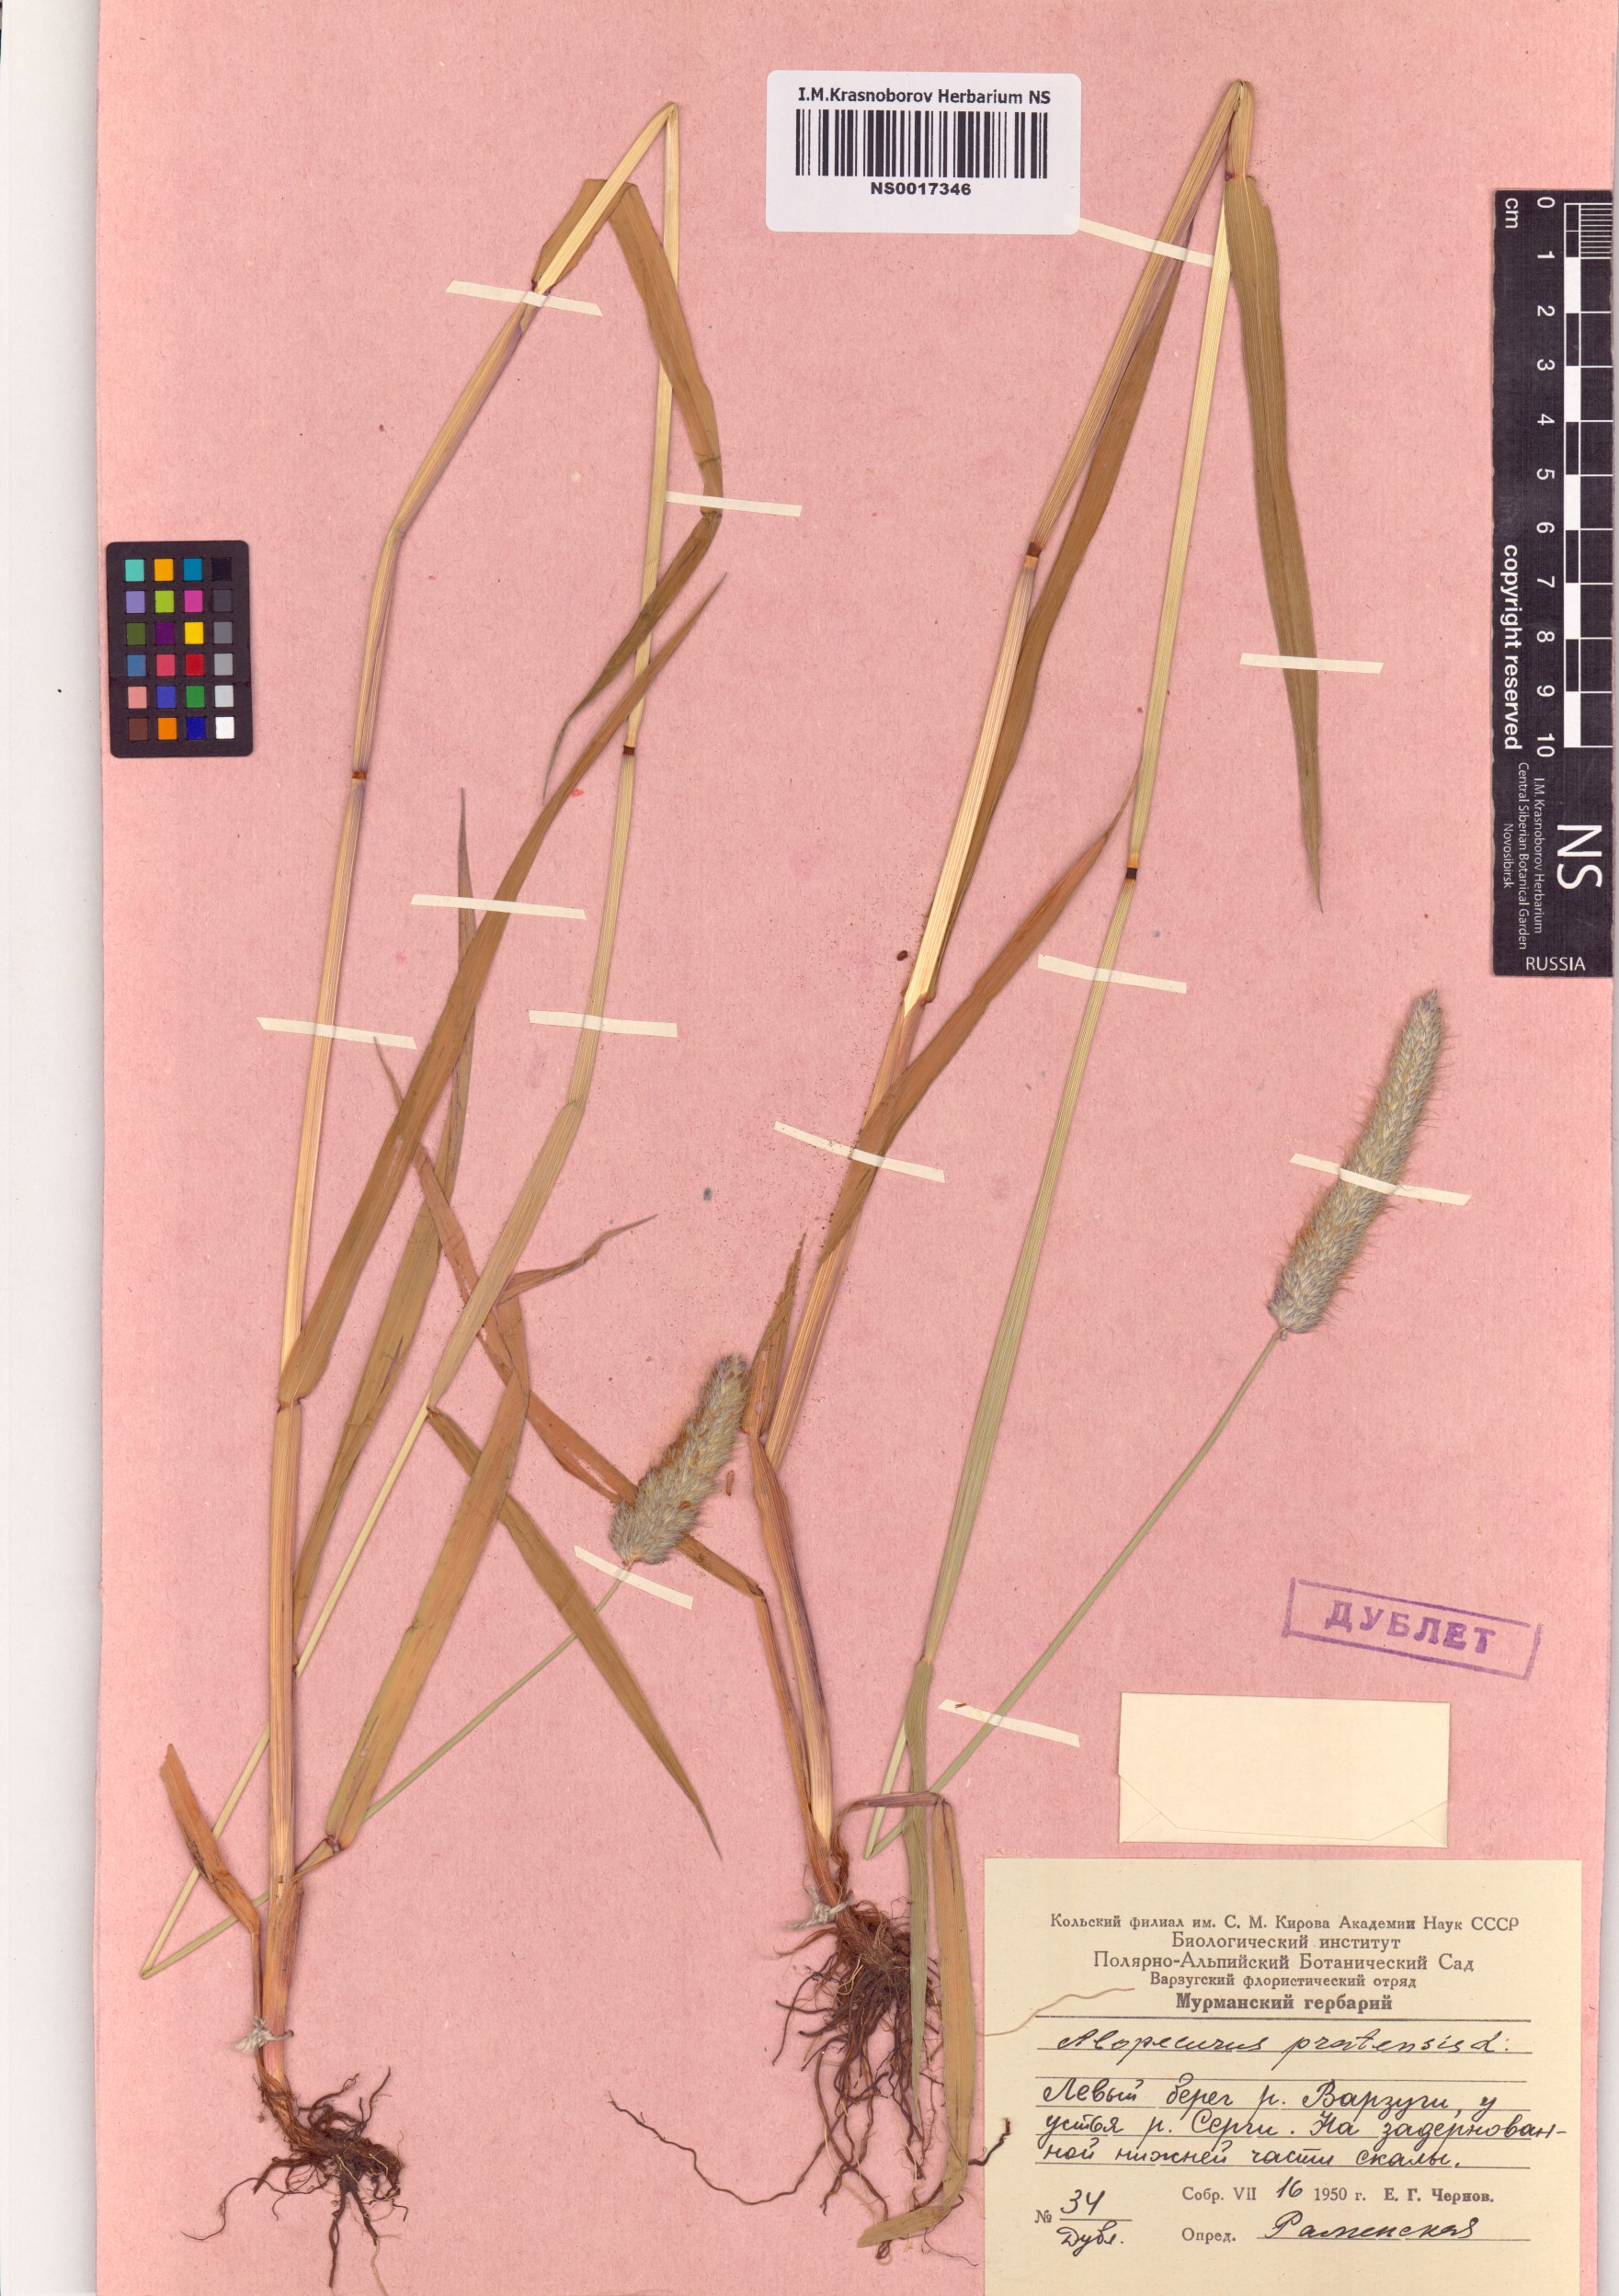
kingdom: Plantae
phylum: Tracheophyta
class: Liliopsida
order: Poales
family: Poaceae
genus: Alopecurus
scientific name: Alopecurus pratensis
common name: Meadow foxtail
